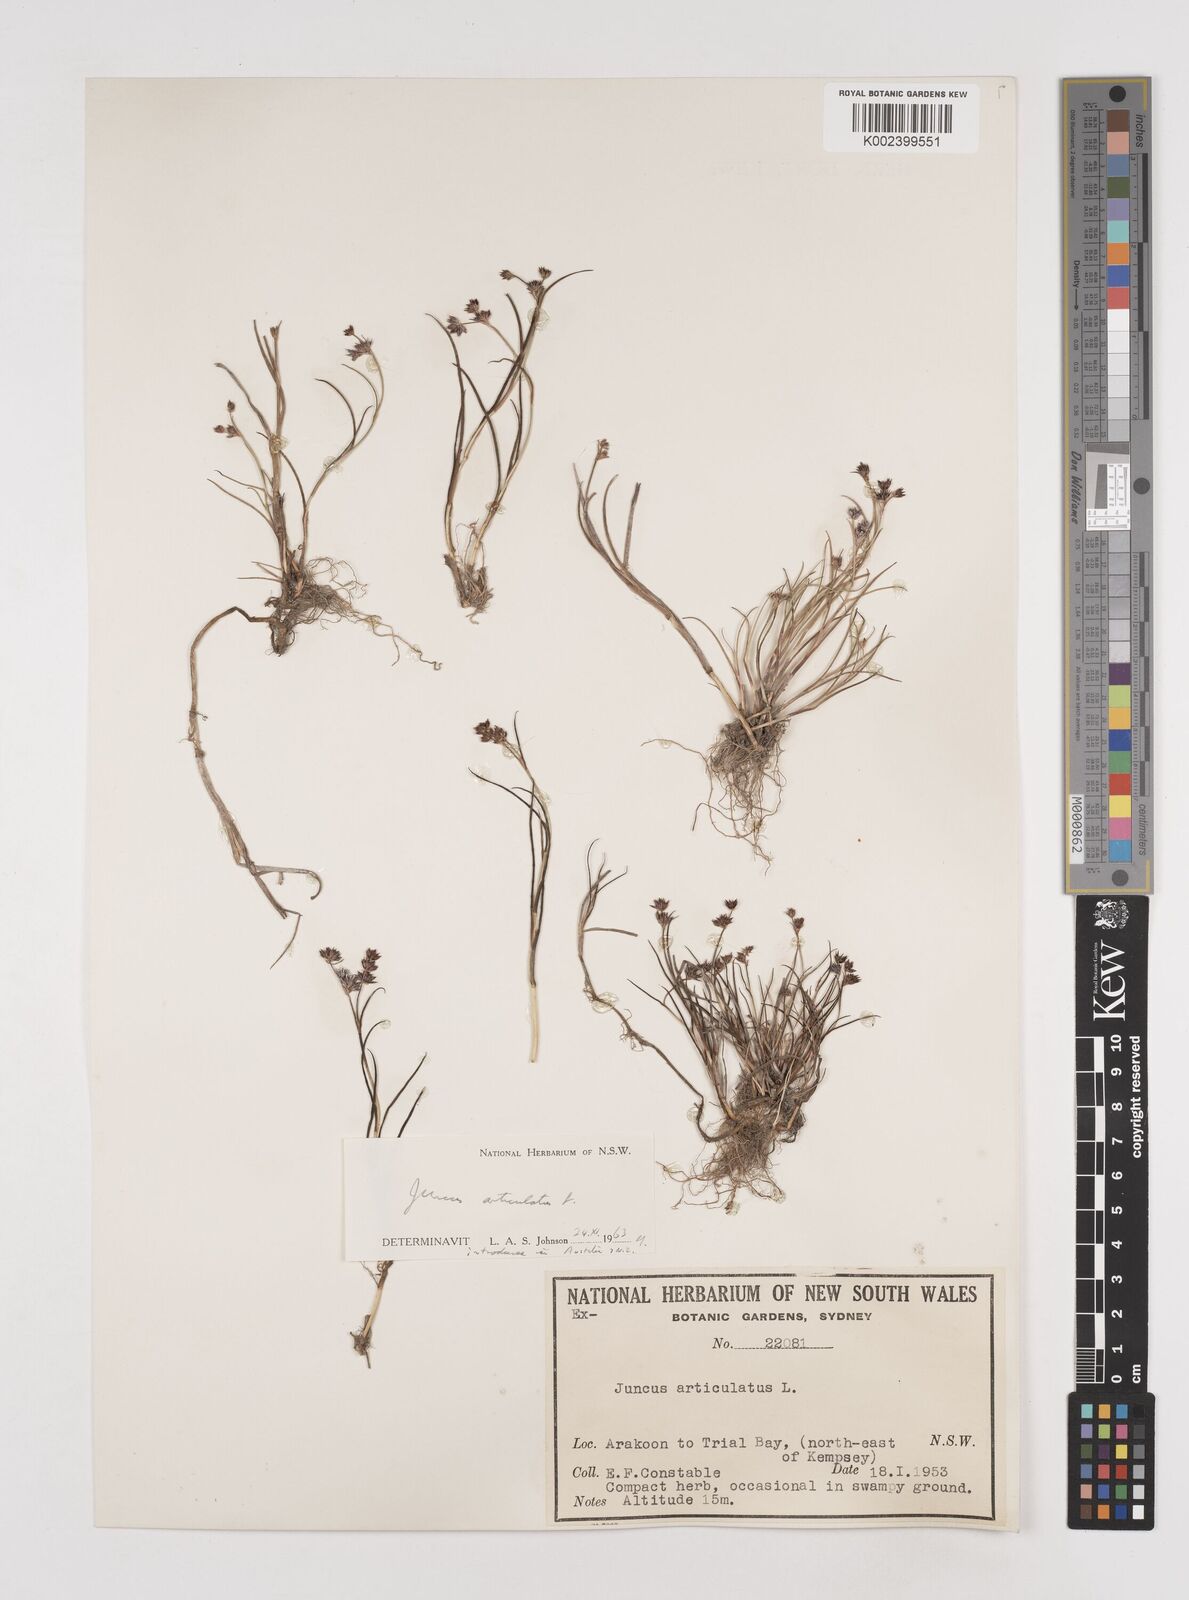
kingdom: Plantae
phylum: Tracheophyta
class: Liliopsida
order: Poales
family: Juncaceae
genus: Juncus
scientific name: Juncus articulatus
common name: Jointed rush
